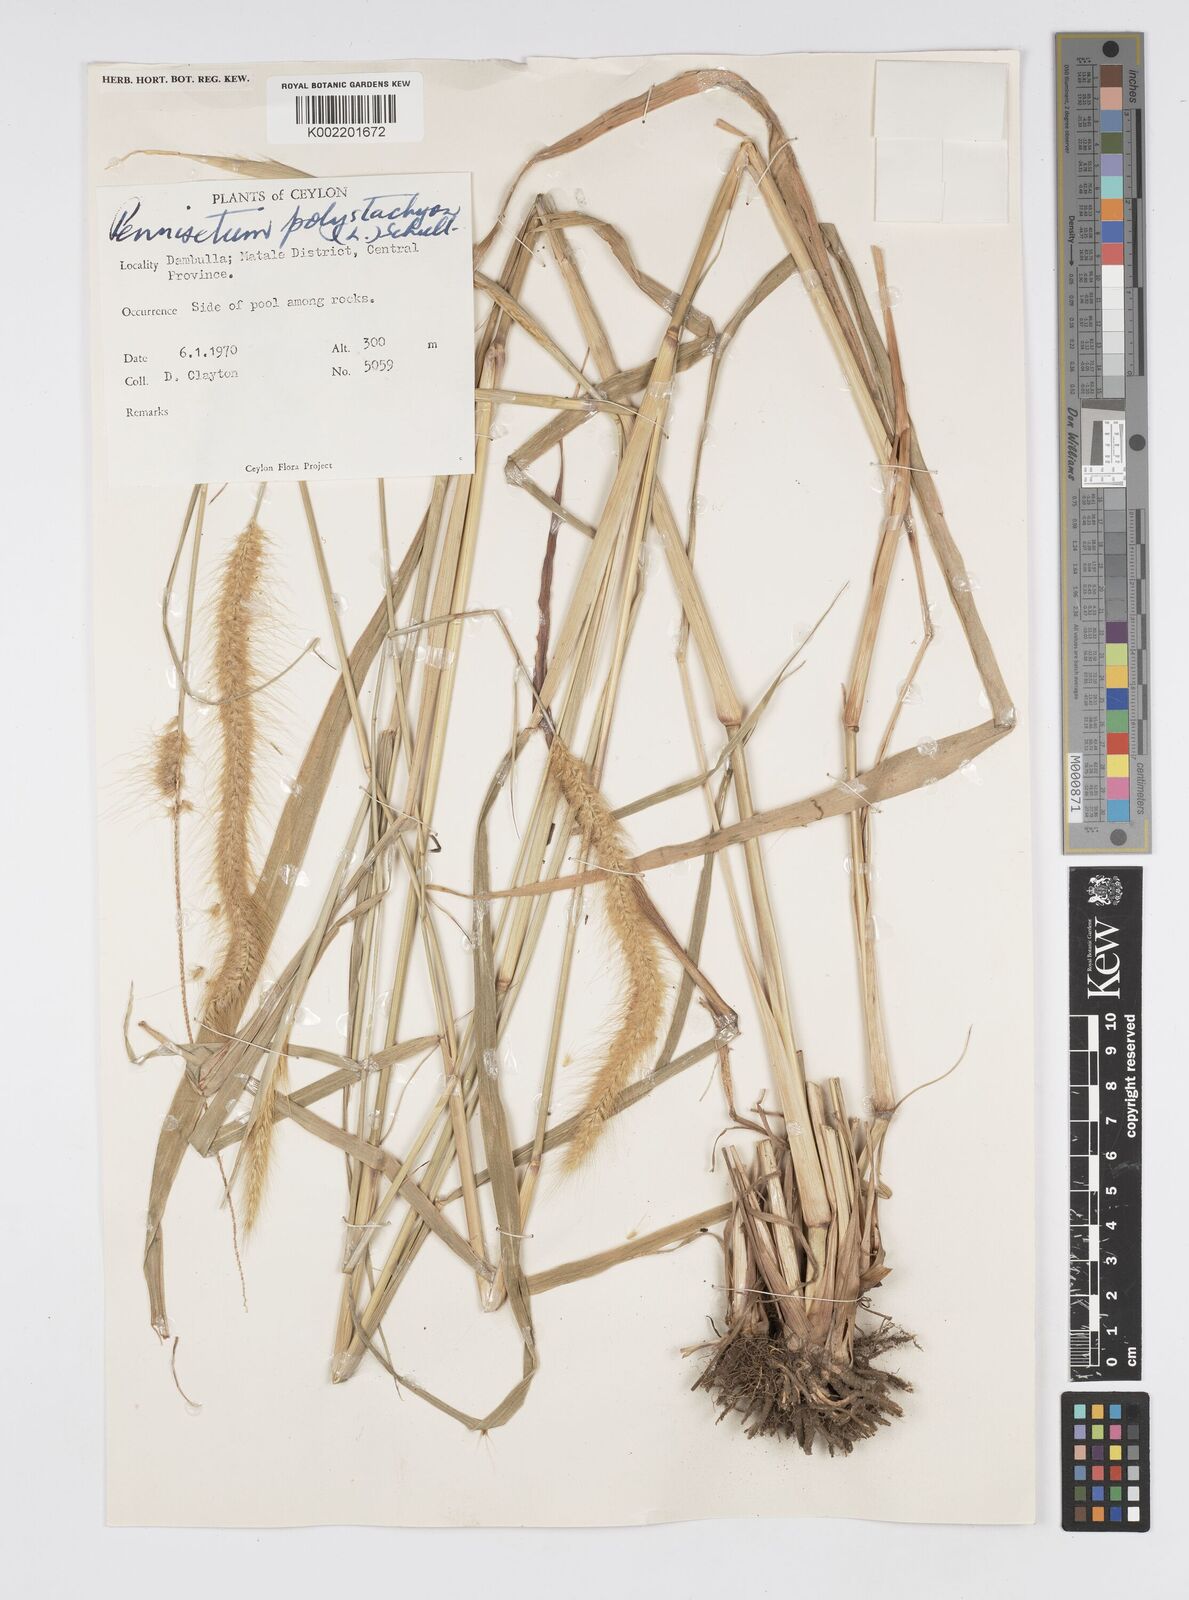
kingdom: Plantae
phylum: Tracheophyta
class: Liliopsida
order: Poales
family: Poaceae
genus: Setaria
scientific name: Setaria parviflora
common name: Knotroot bristle-grass
